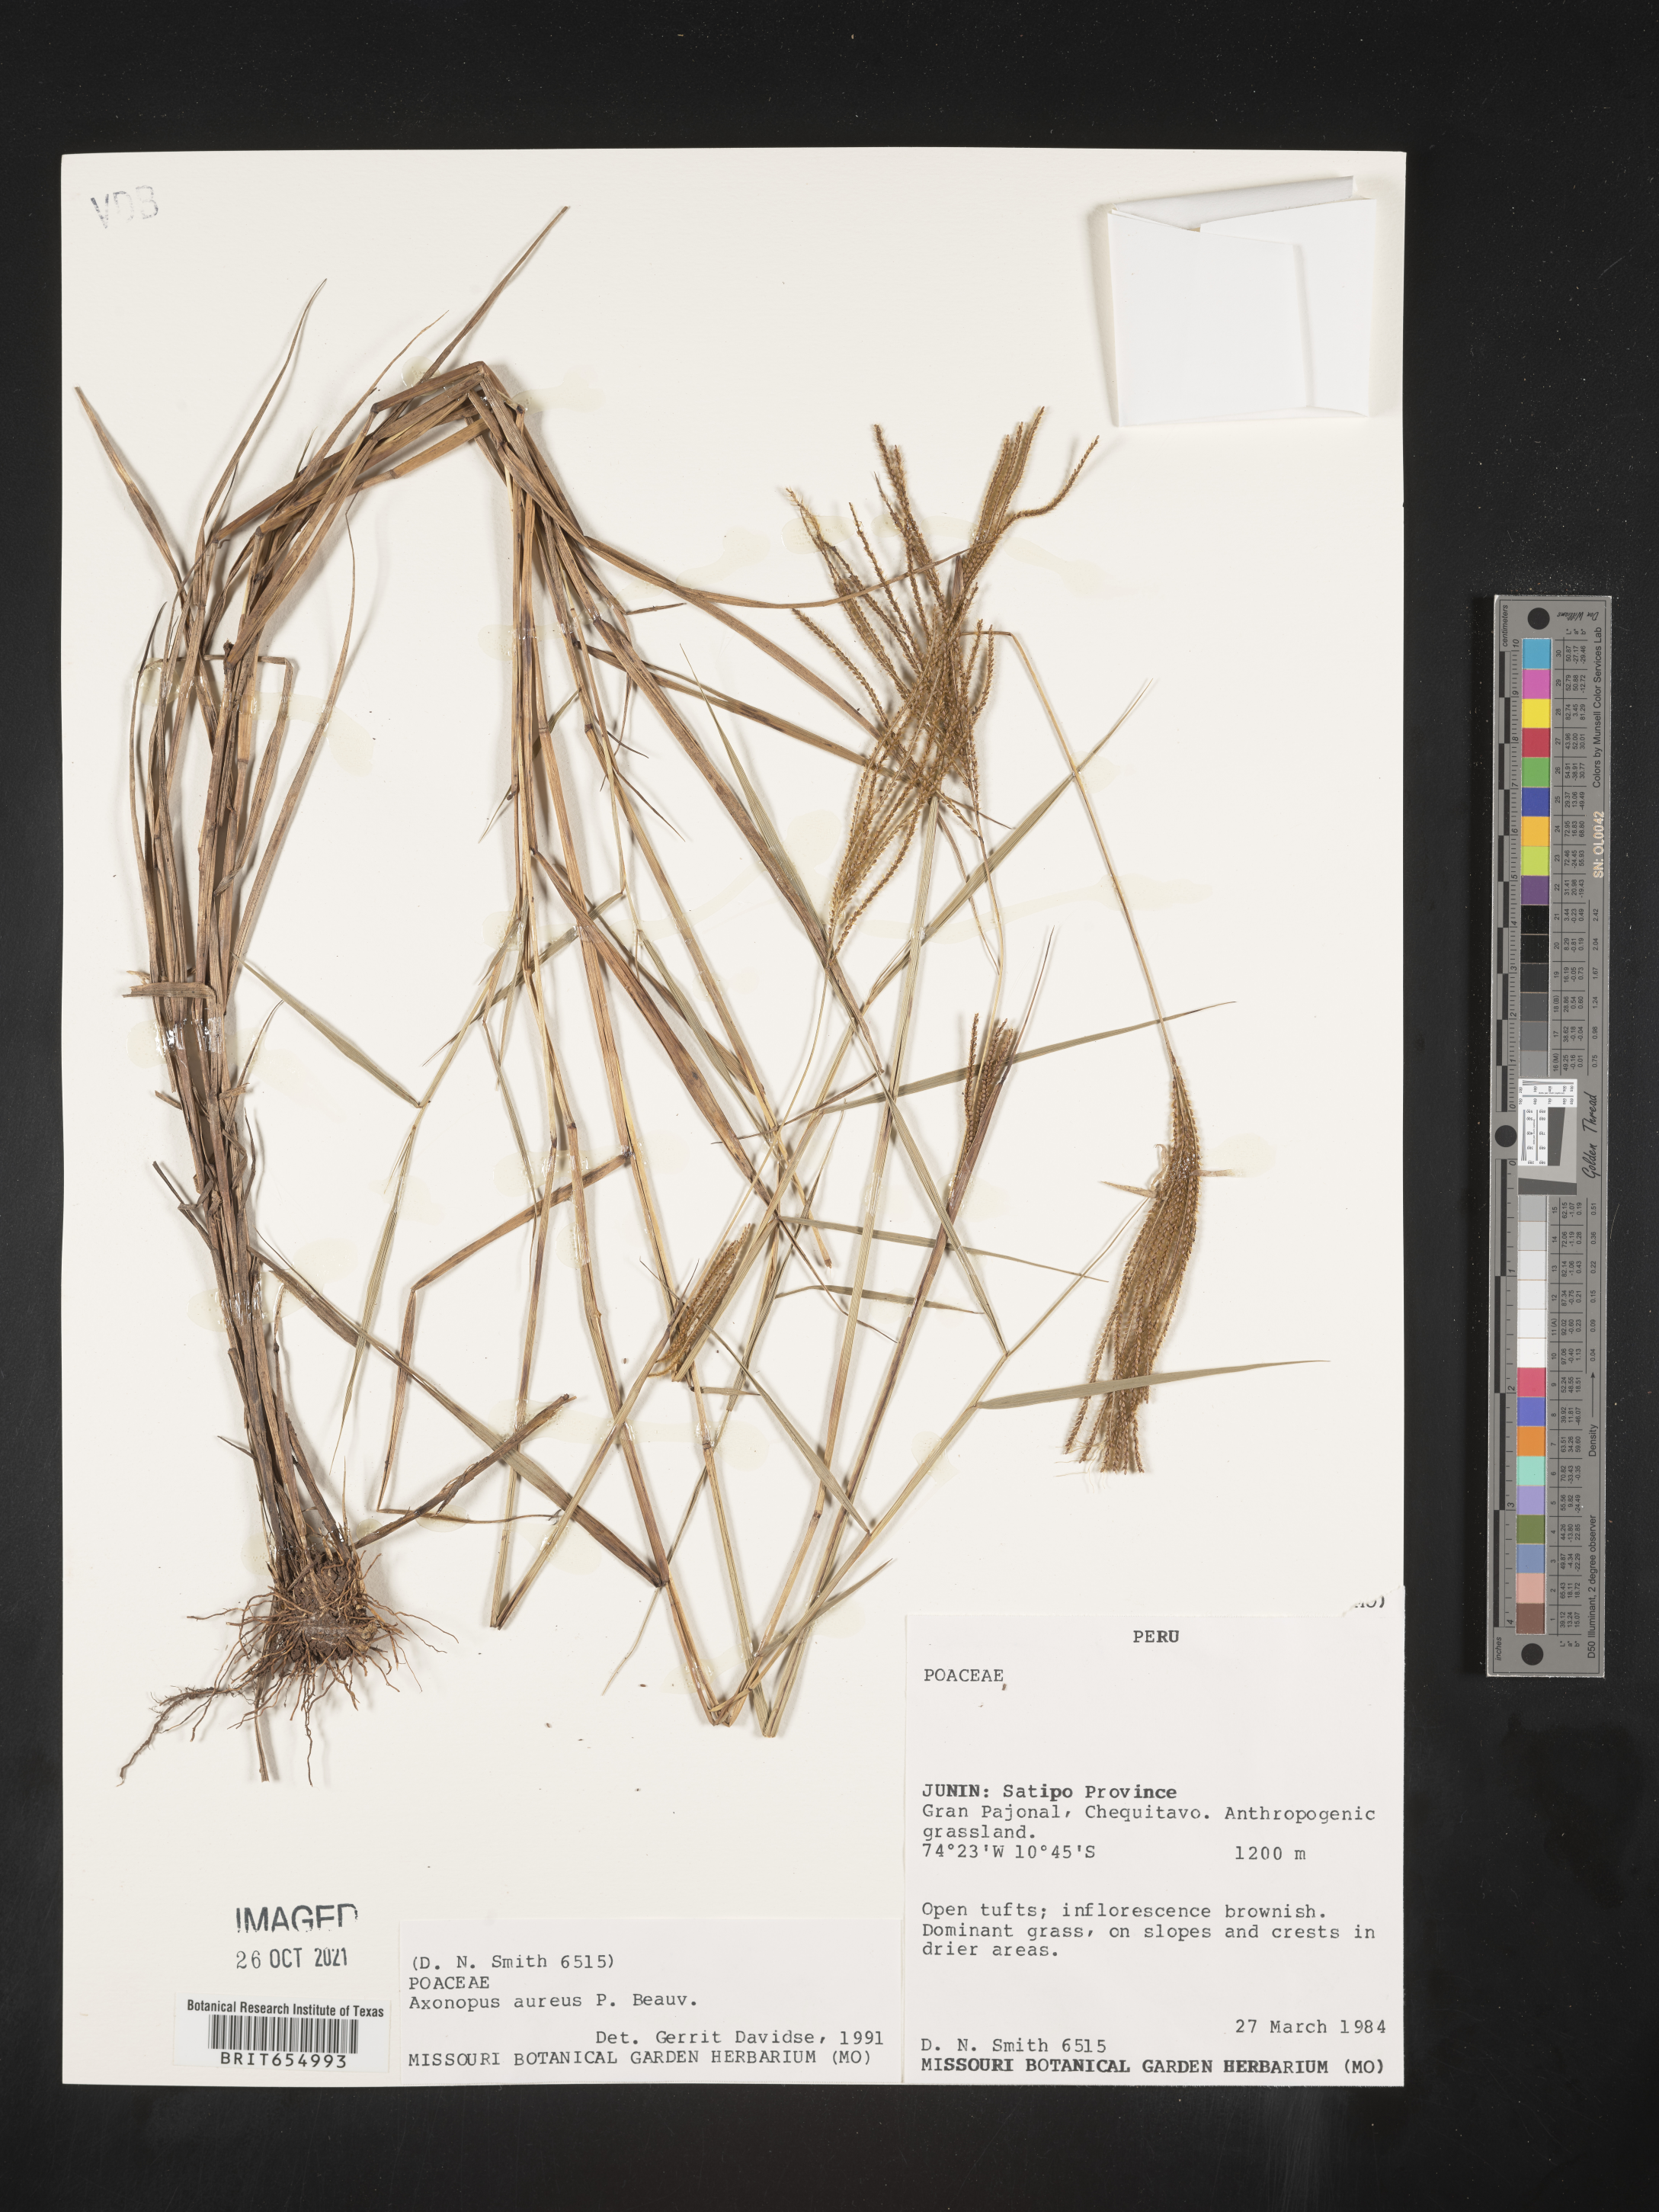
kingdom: Plantae
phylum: Tracheophyta
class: Liliopsida
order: Poales
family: Poaceae
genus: Axonopus
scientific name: Axonopus
